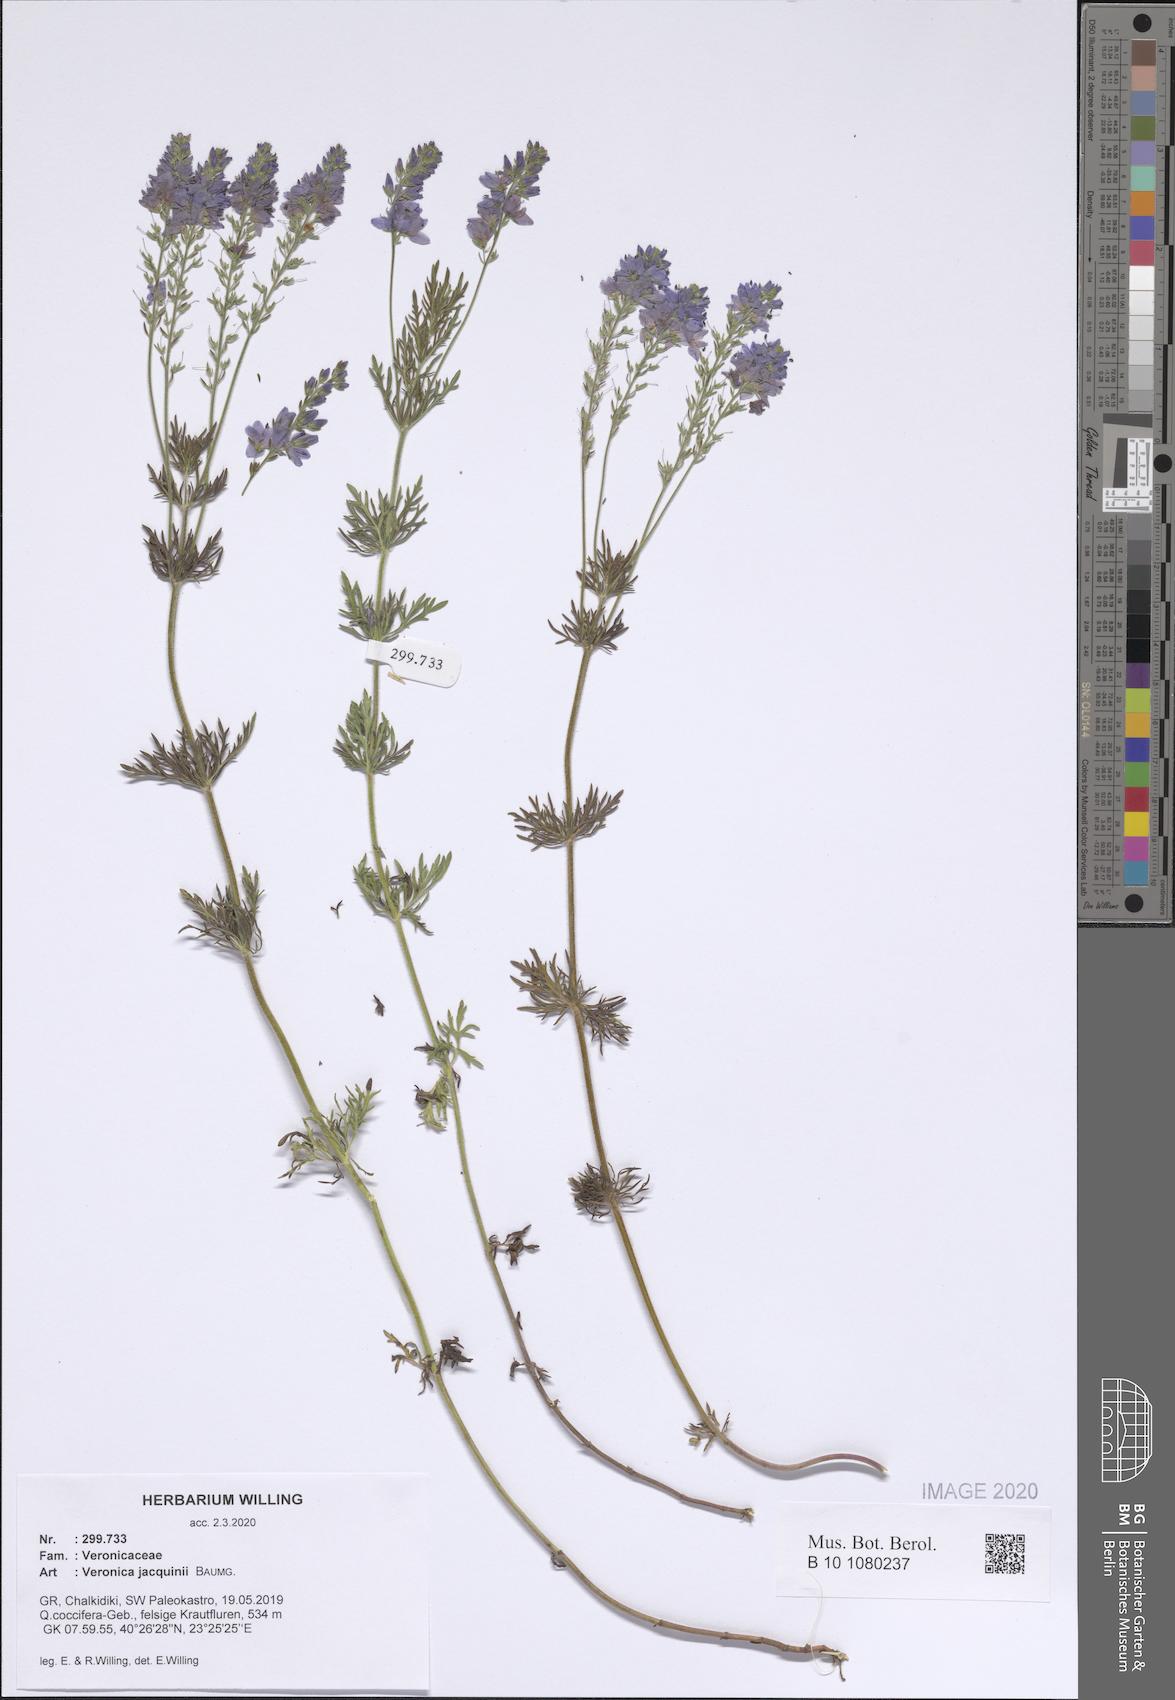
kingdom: Plantae
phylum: Tracheophyta
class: Magnoliopsida
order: Lamiales
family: Plantaginaceae
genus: Veronica
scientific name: Veronica austriaca
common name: Large speedwell
